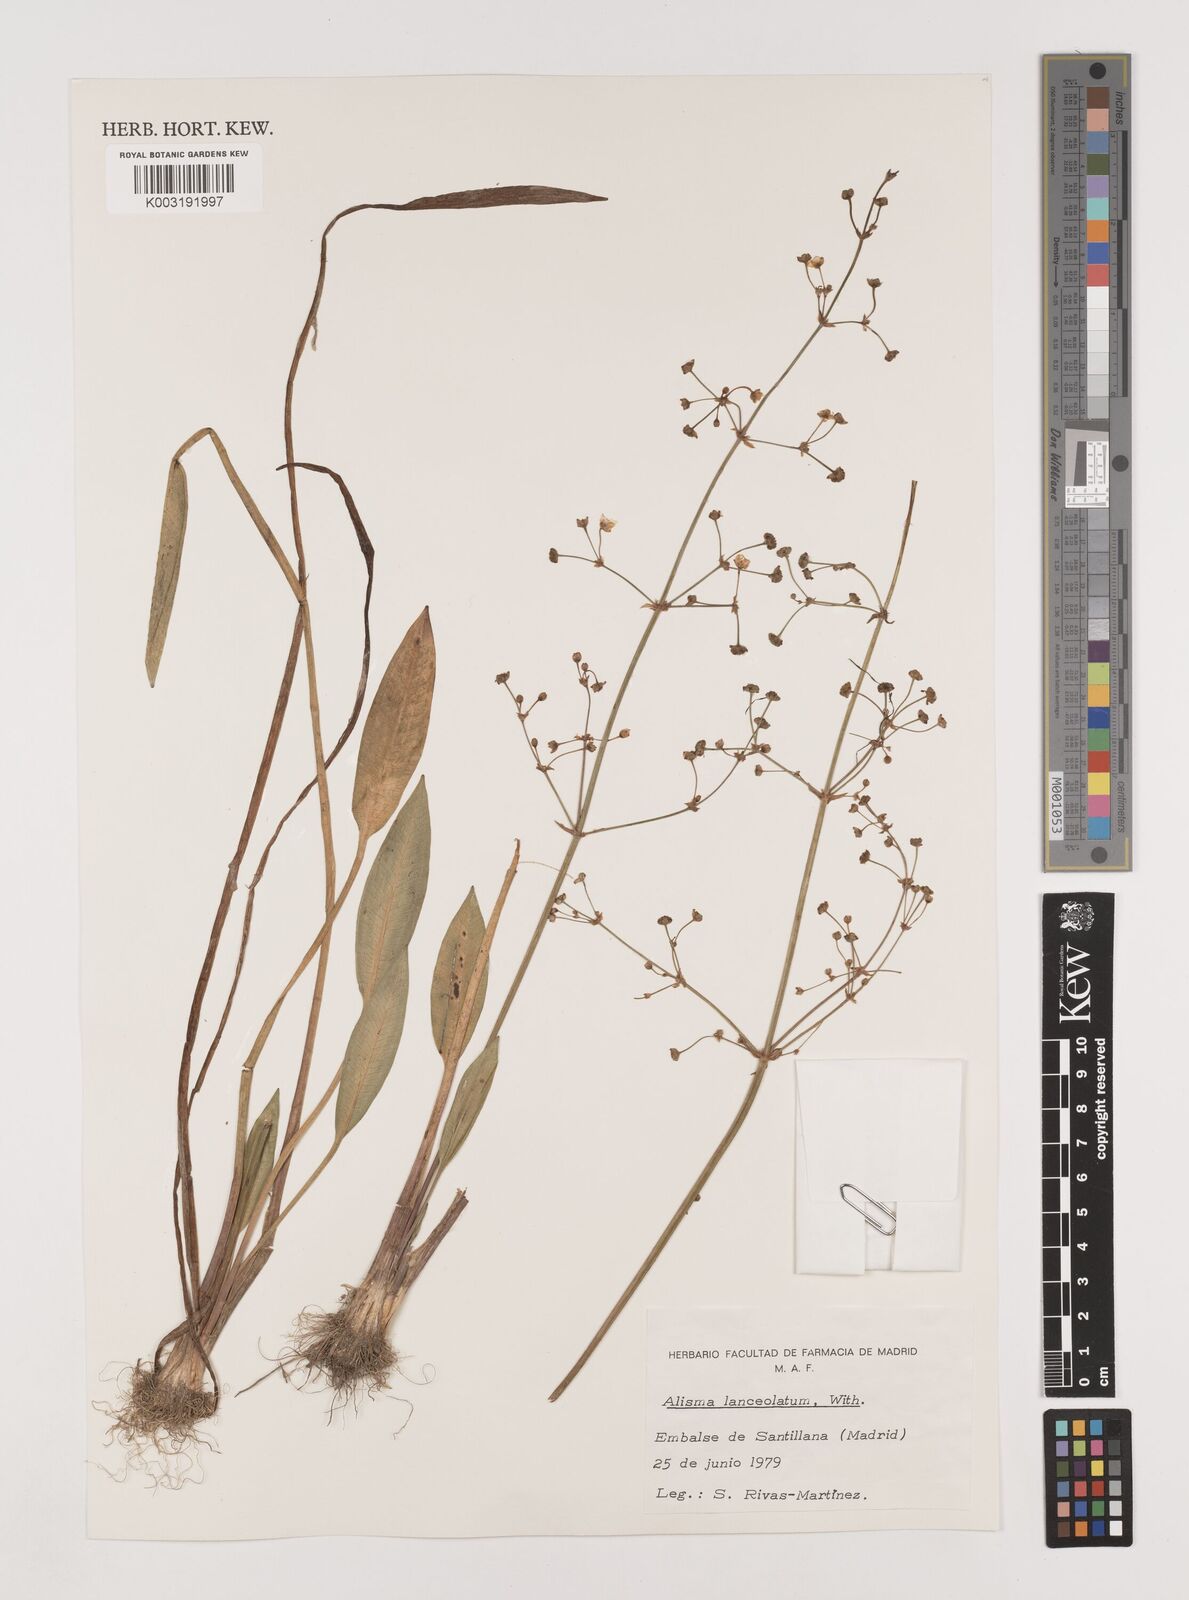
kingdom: Plantae
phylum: Tracheophyta
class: Liliopsida
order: Alismatales
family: Alismataceae
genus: Alisma
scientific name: Alisma lanceolatum
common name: Narrow-leaved water-plantain
